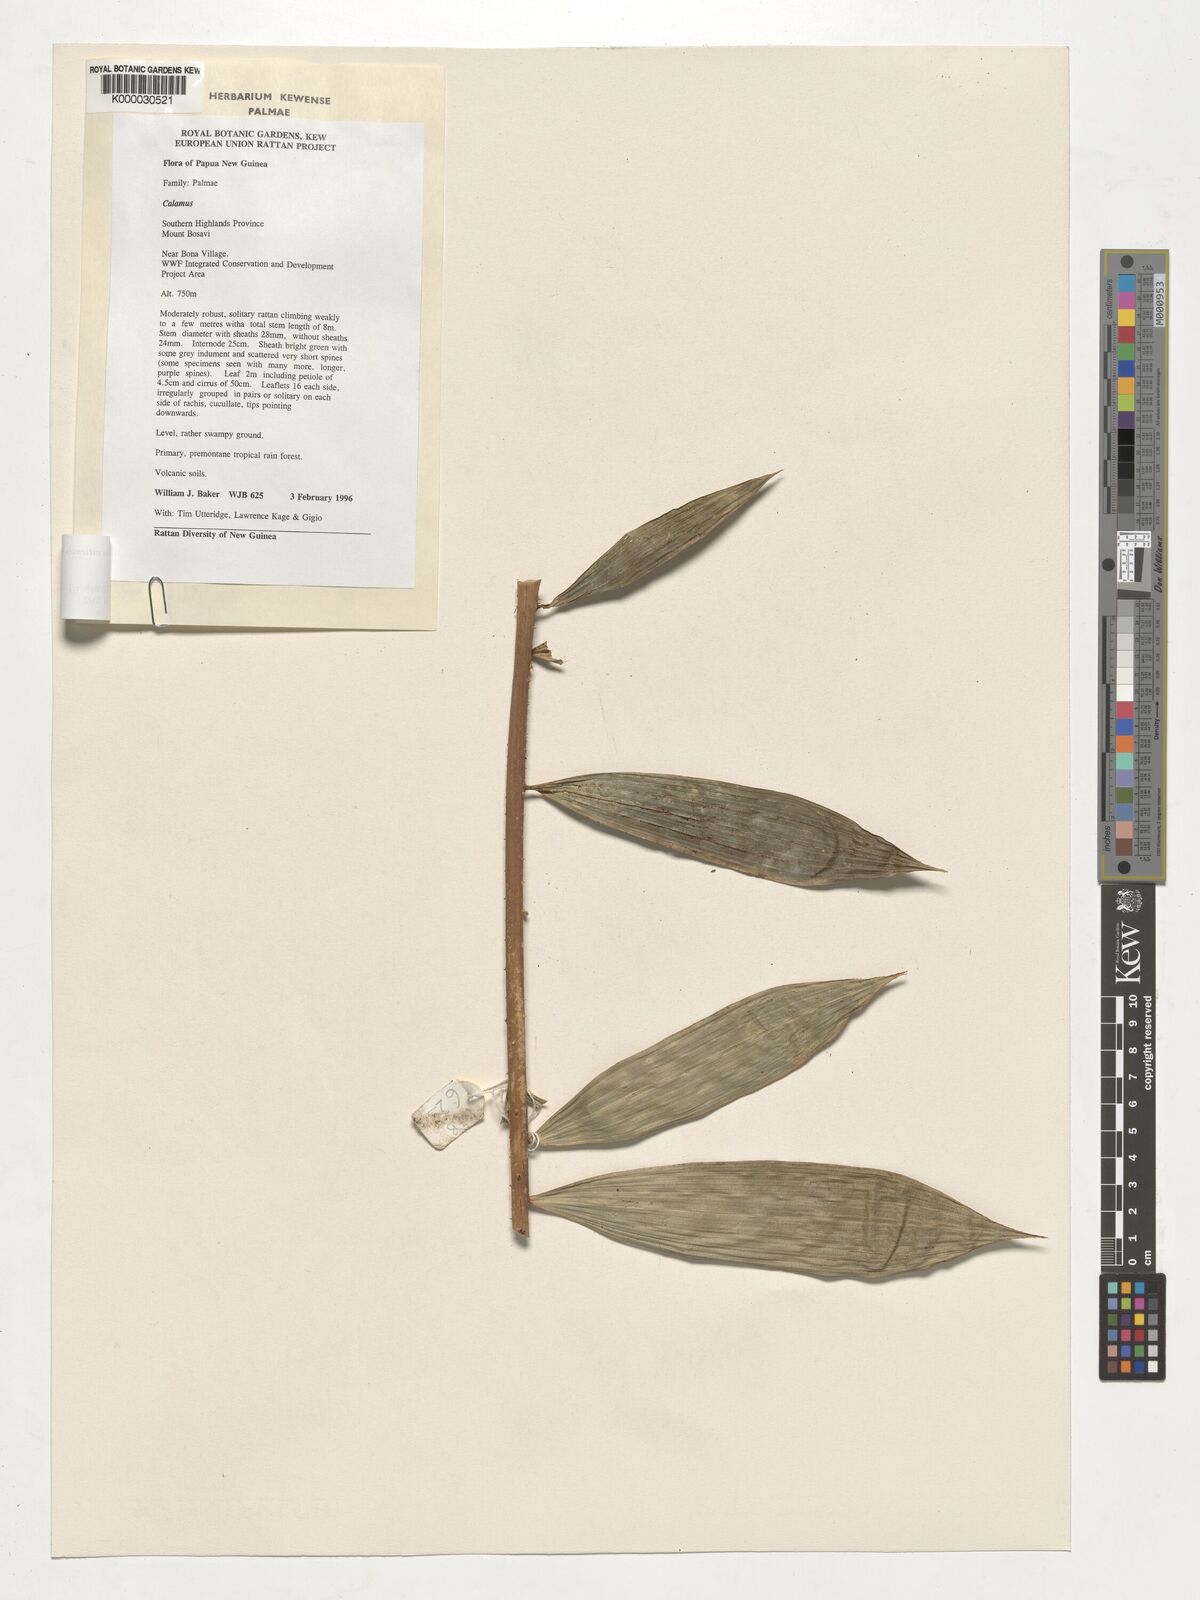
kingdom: Plantae
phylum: Tracheophyta
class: Liliopsida
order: Arecales
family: Arecaceae
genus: Calamus
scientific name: Calamus vitiensis
